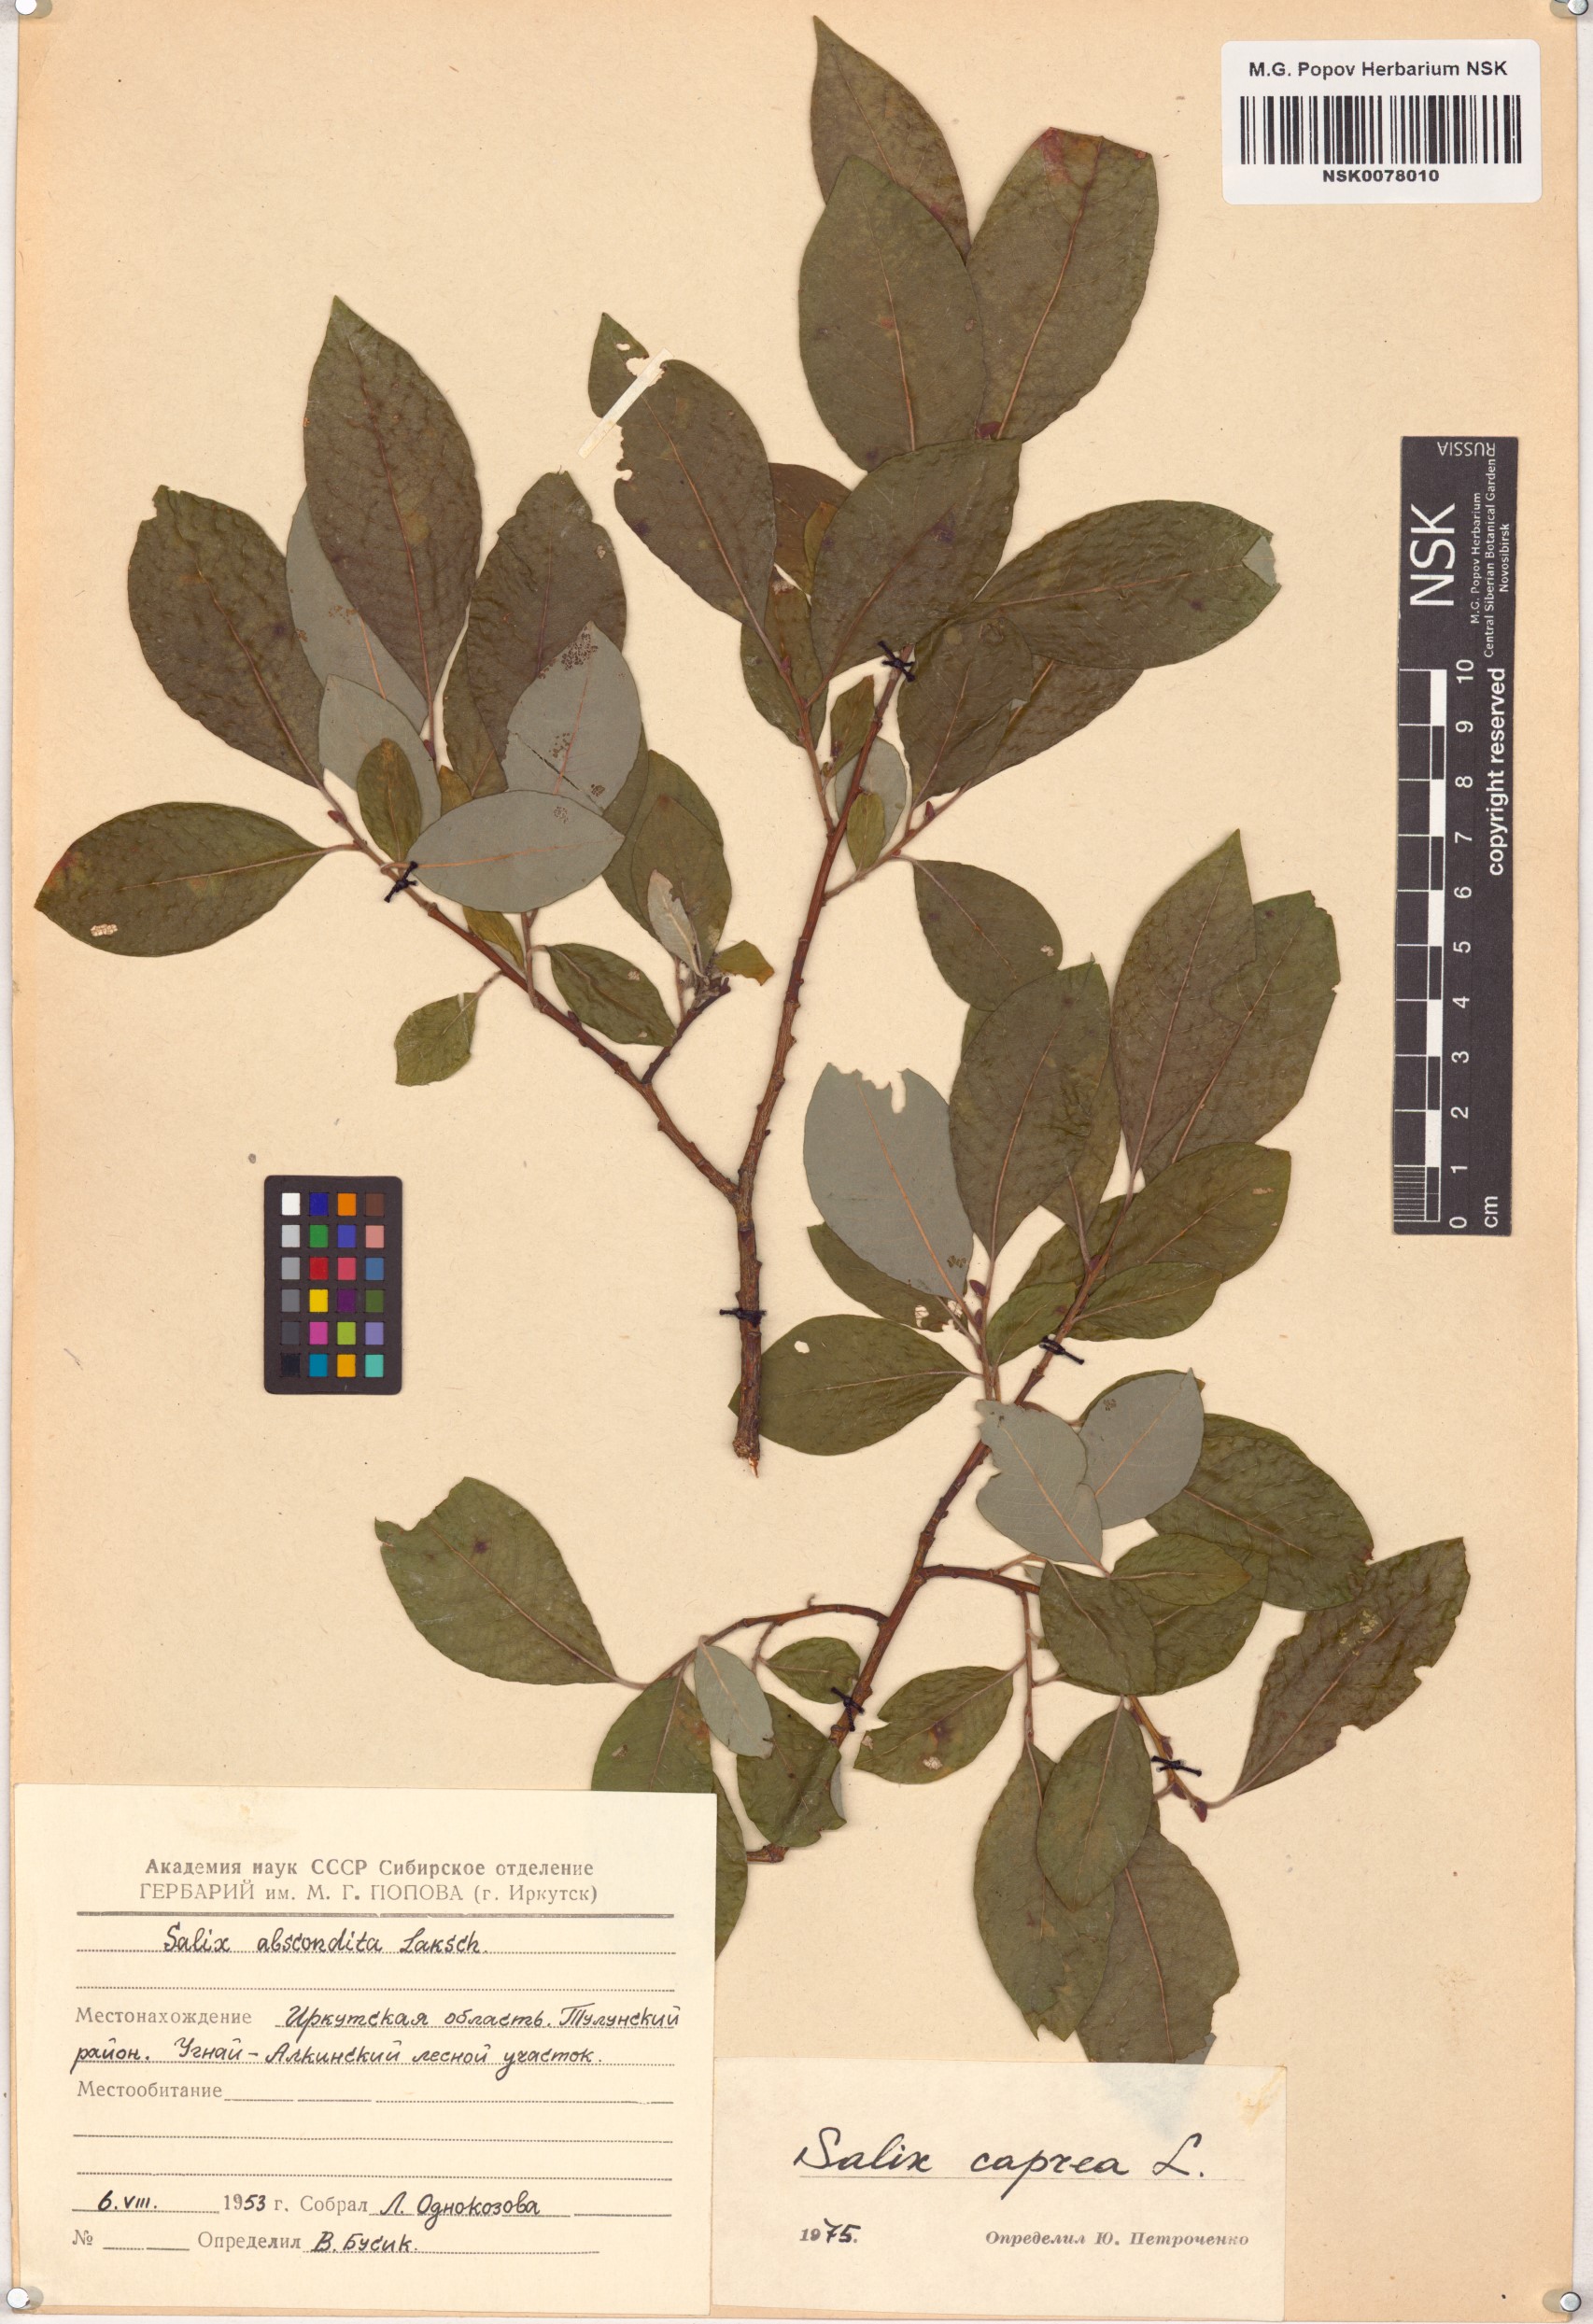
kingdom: Plantae
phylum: Tracheophyta
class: Magnoliopsida
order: Malpighiales
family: Salicaceae
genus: Salix
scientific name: Salix caprea
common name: Goat willow
